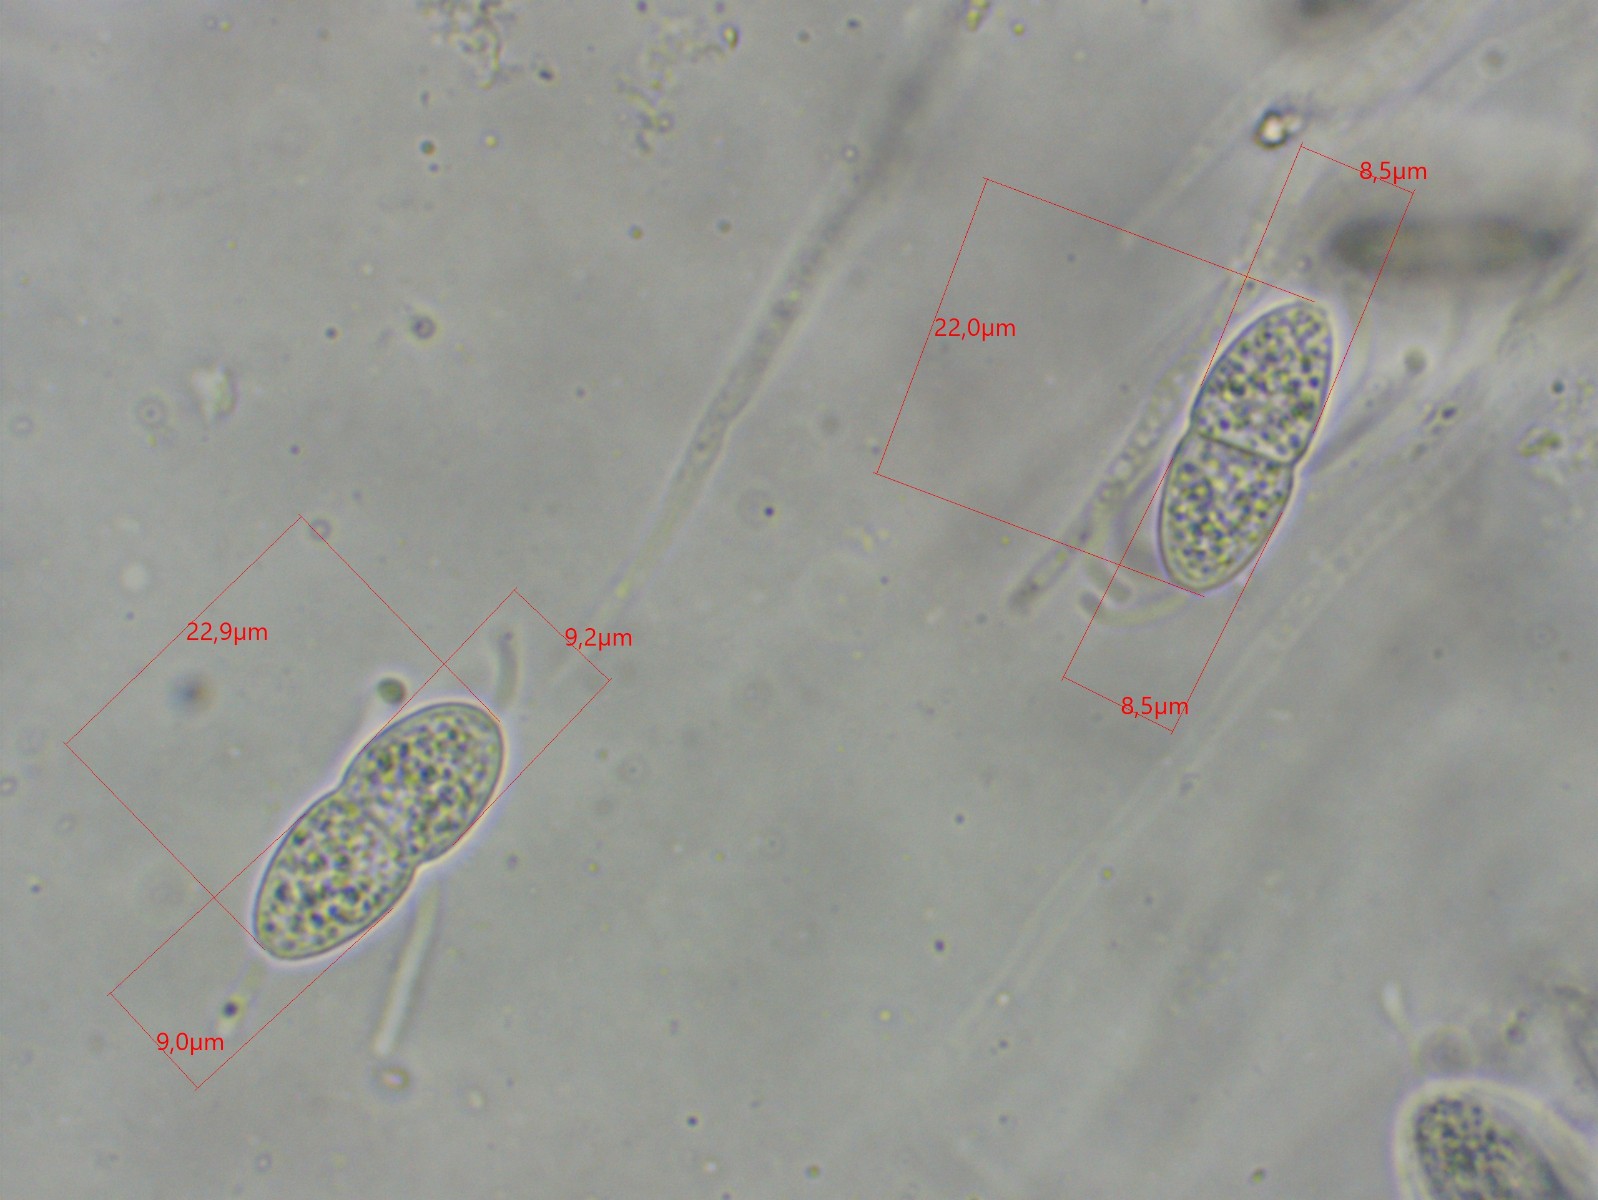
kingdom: Fungi
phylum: Ascomycota
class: Sordariomycetes
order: Diaporthales
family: Sydowiellaceae
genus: Caudospora
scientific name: Caudospora taleola
